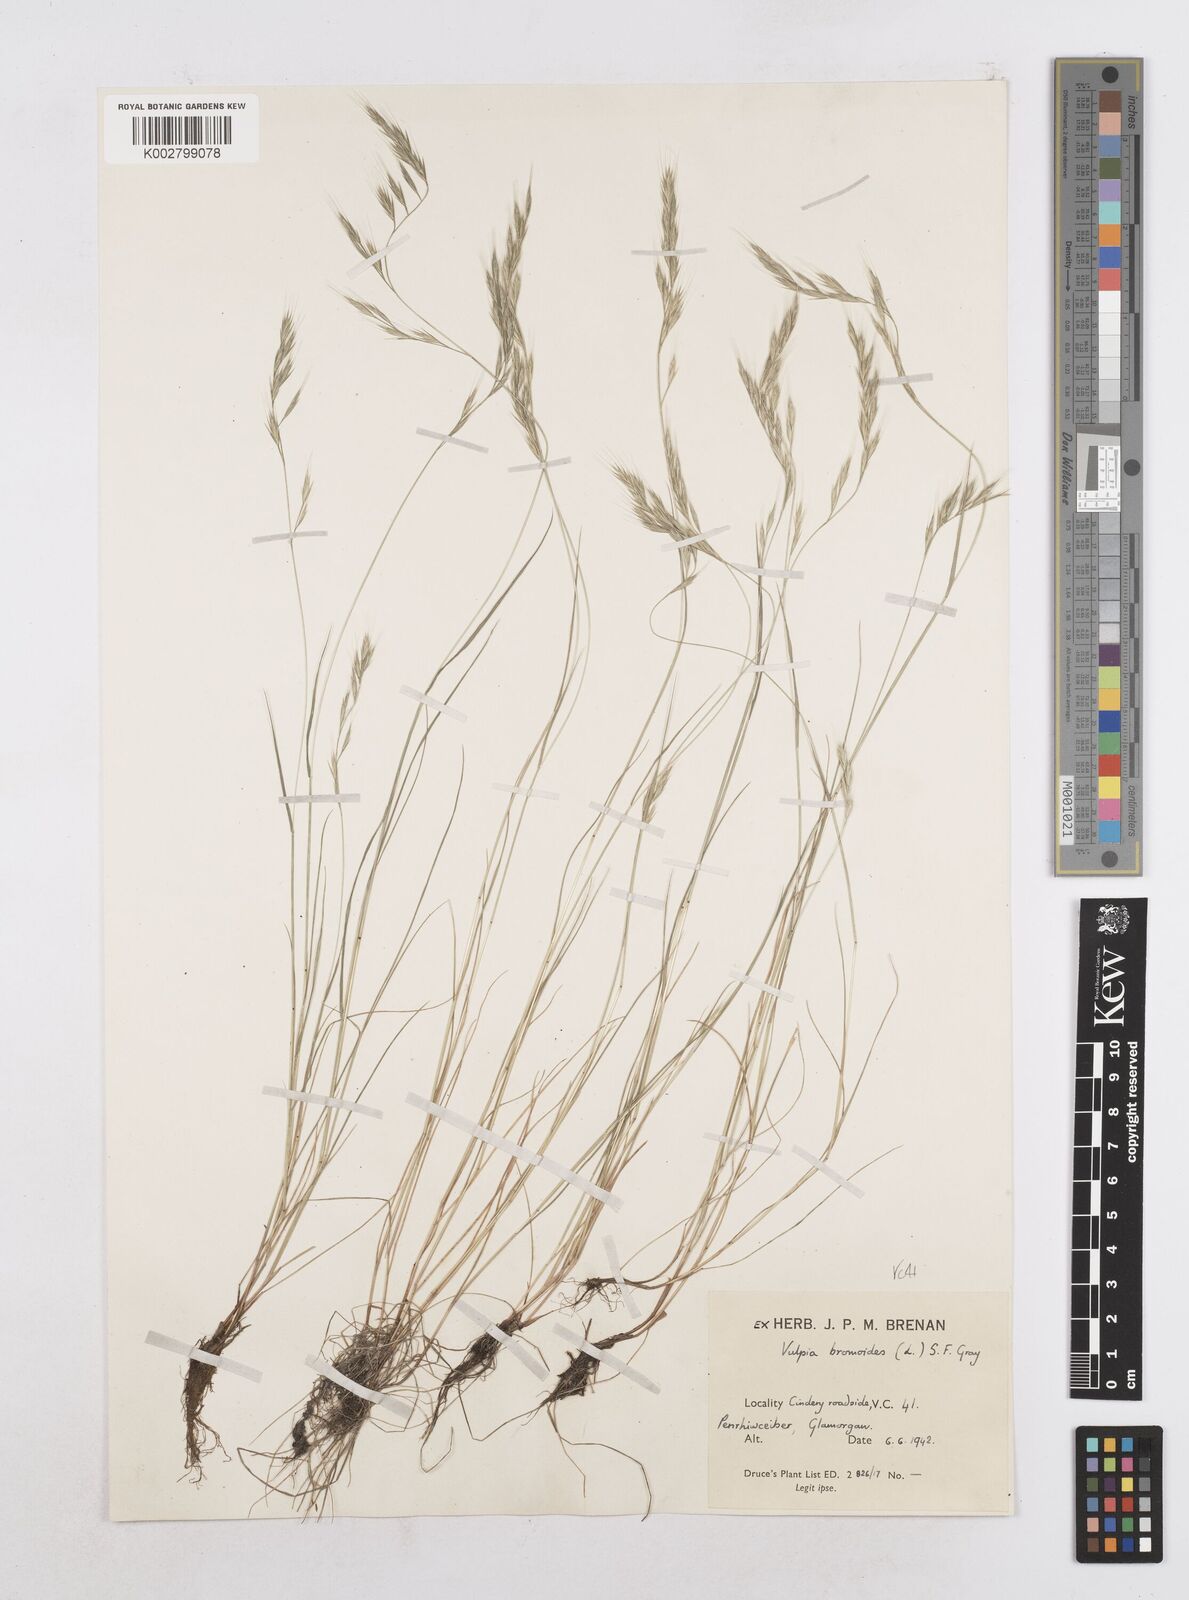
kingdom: Plantae
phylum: Tracheophyta
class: Liliopsida
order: Poales
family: Poaceae
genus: Festuca
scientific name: Festuca bromoides
